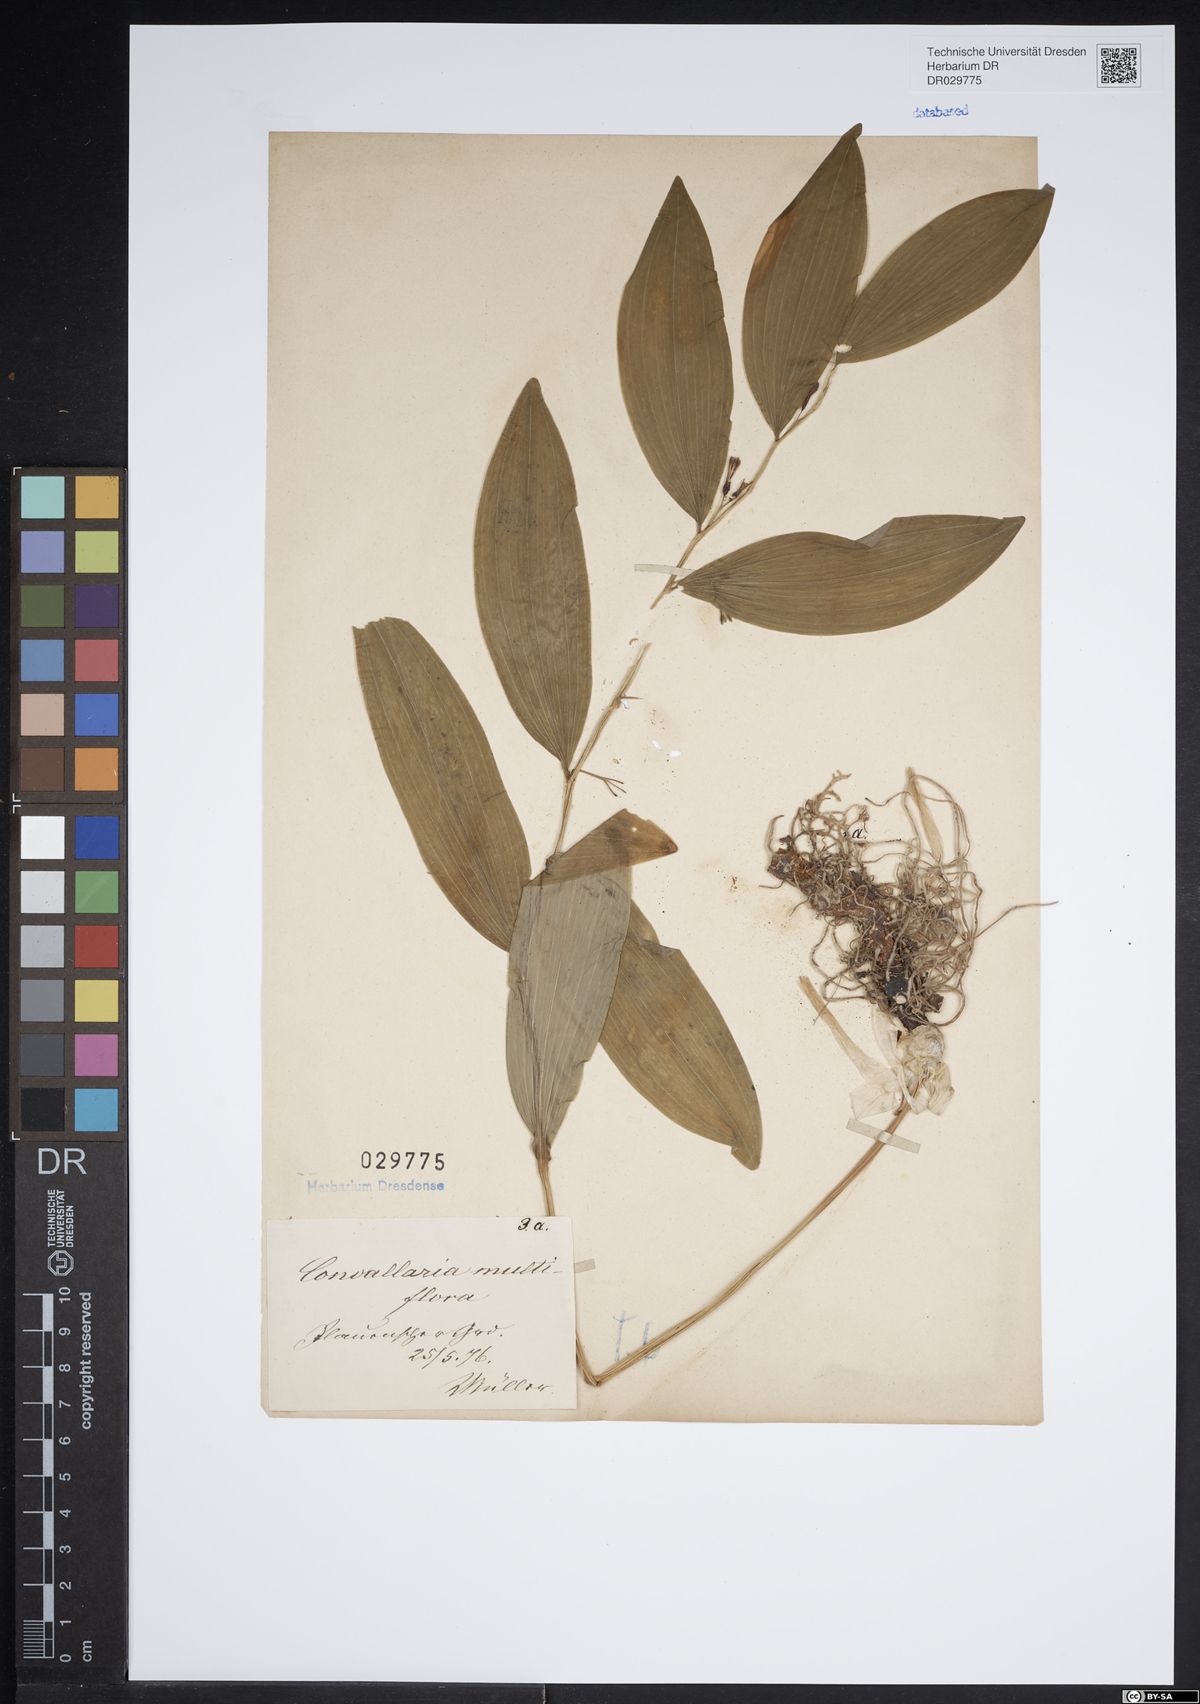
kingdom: Plantae
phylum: Tracheophyta
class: Liliopsida
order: Asparagales
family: Asparagaceae
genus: Polygonatum
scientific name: Polygonatum multiflorum
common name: Solomon's-seal
